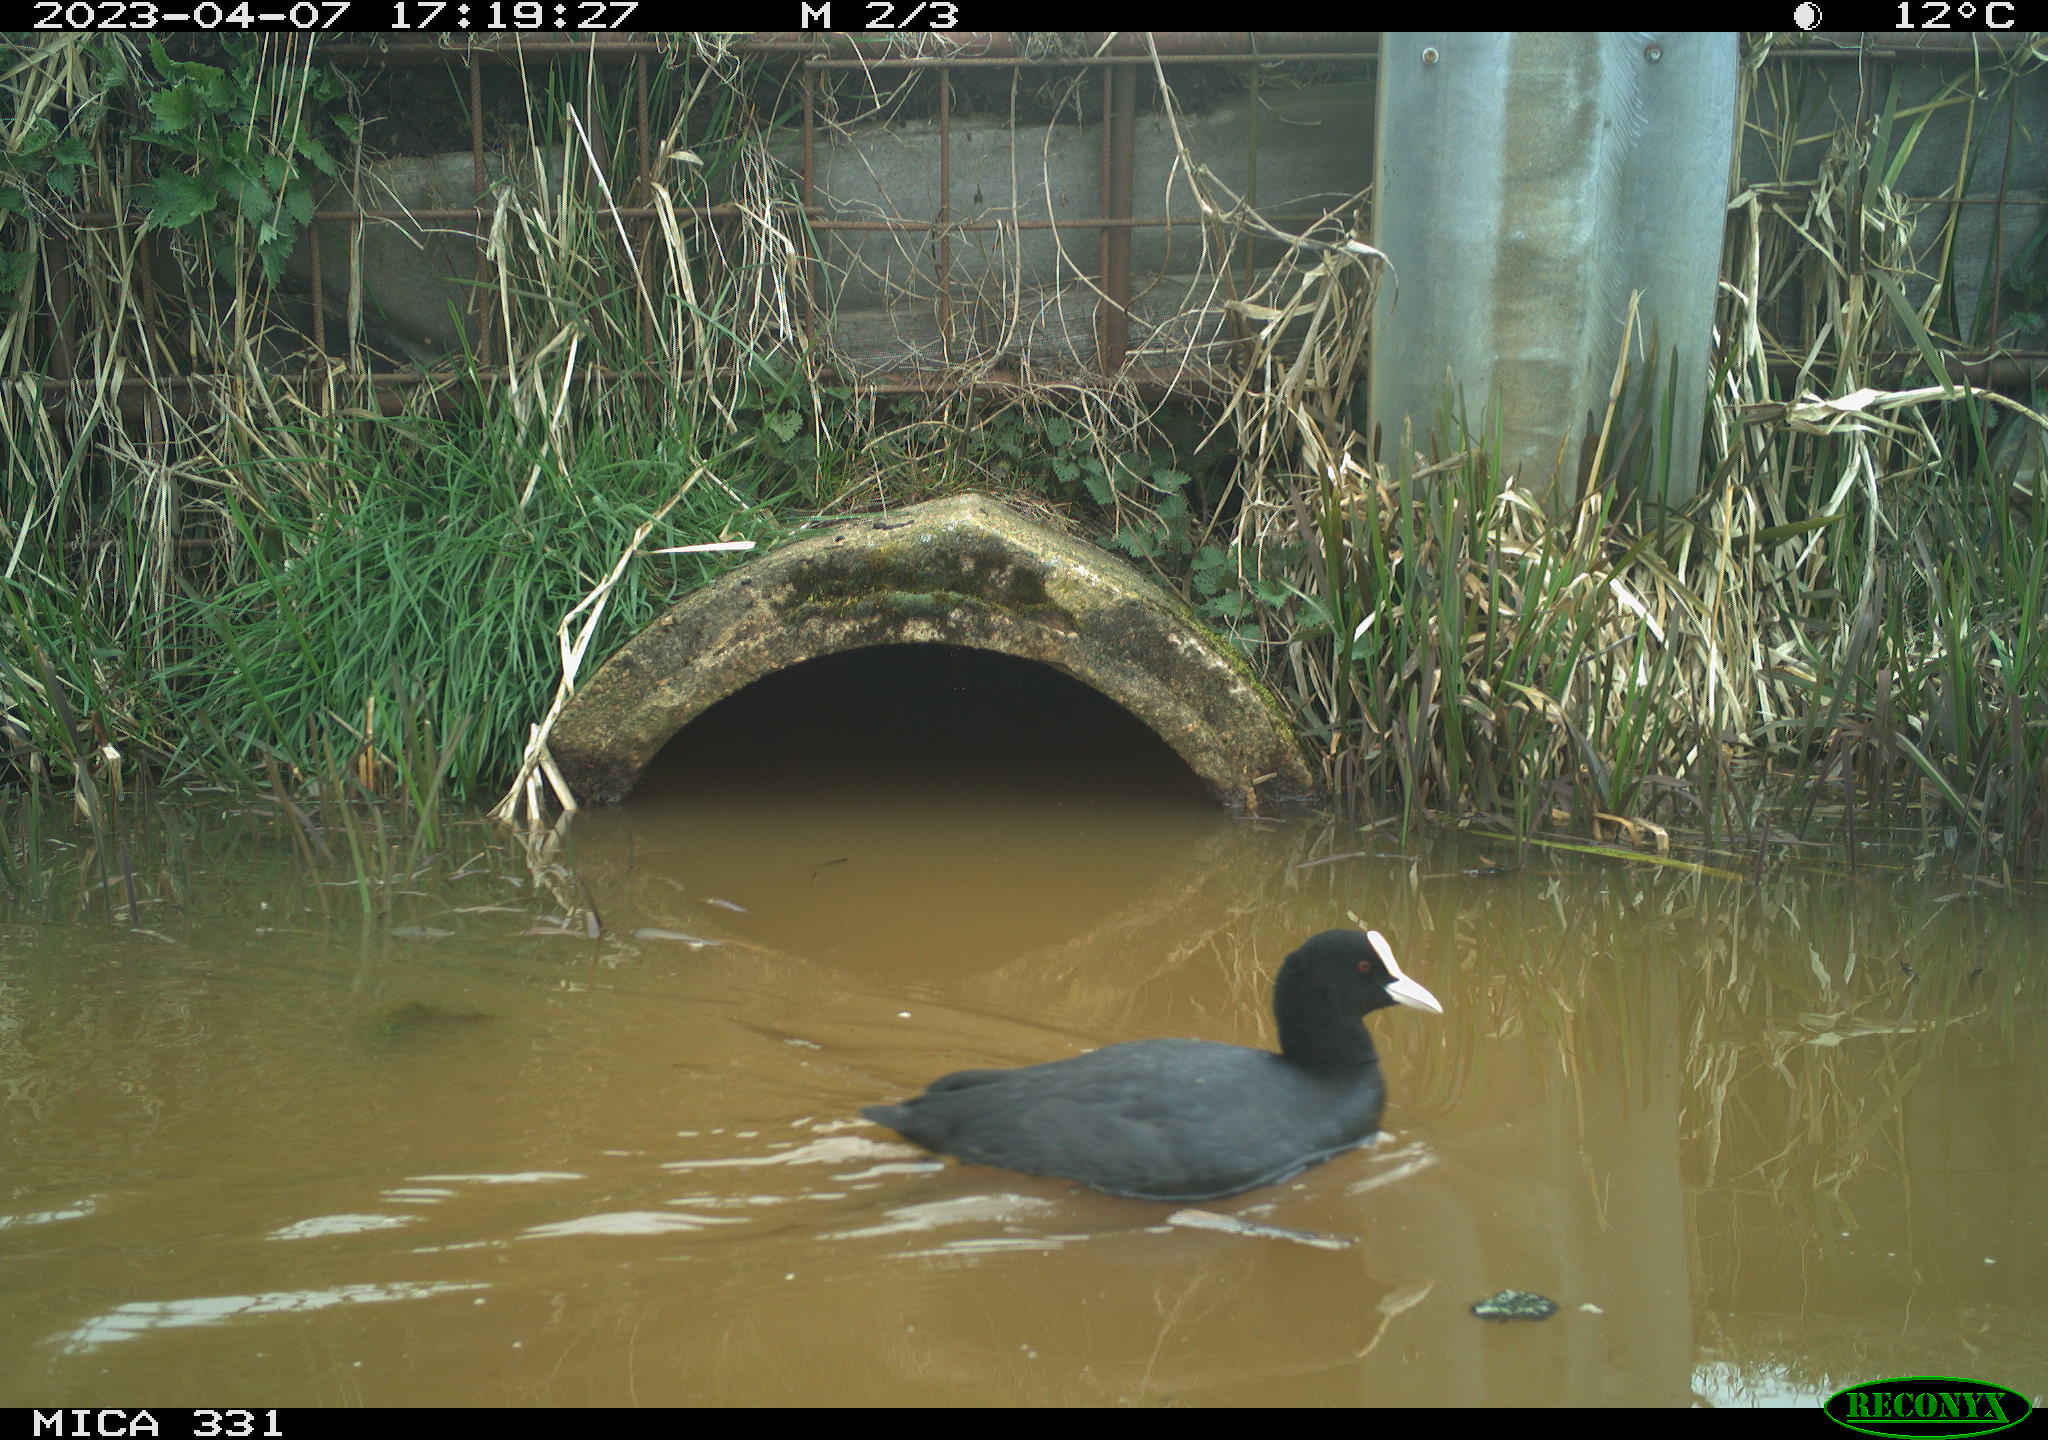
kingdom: Animalia
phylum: Chordata
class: Aves
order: Gruiformes
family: Rallidae
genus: Fulica
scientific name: Fulica atra
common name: Eurasian coot
